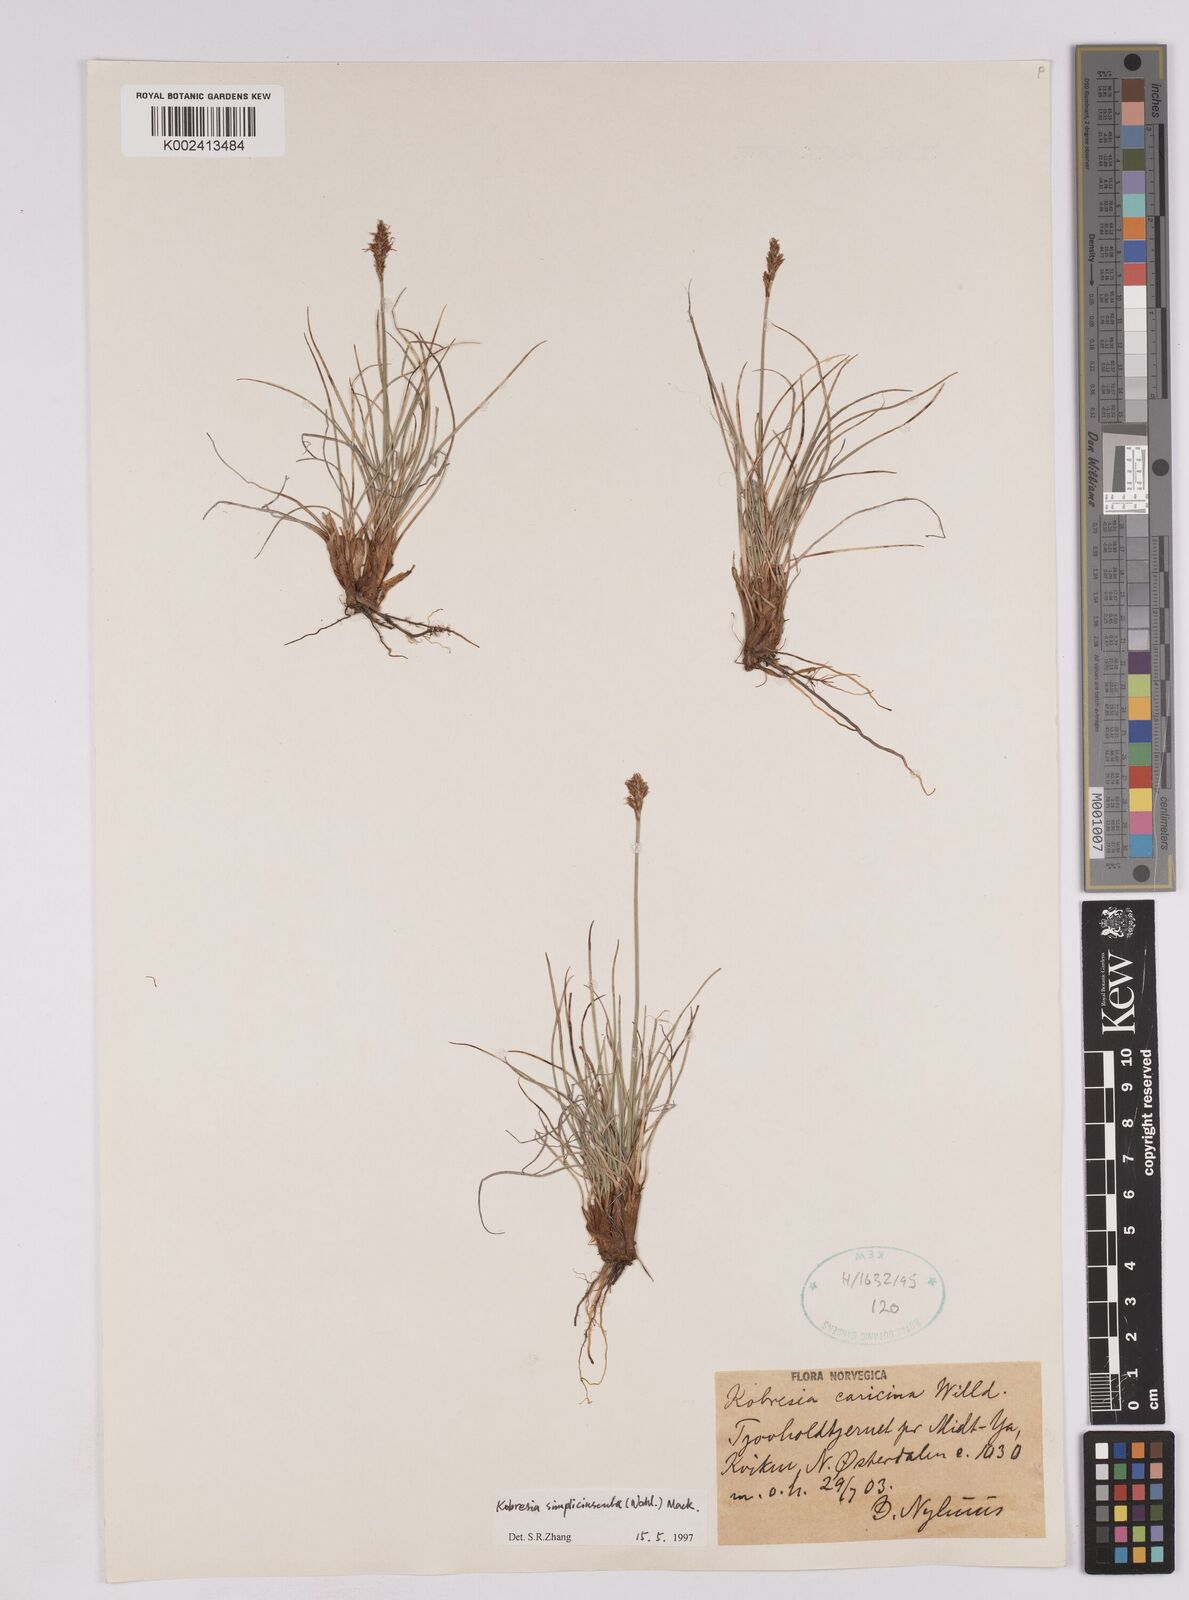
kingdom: Plantae
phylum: Tracheophyta
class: Liliopsida
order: Poales
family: Cyperaceae
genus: Carex
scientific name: Carex simpliciuscula
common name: Simple bog sedge
